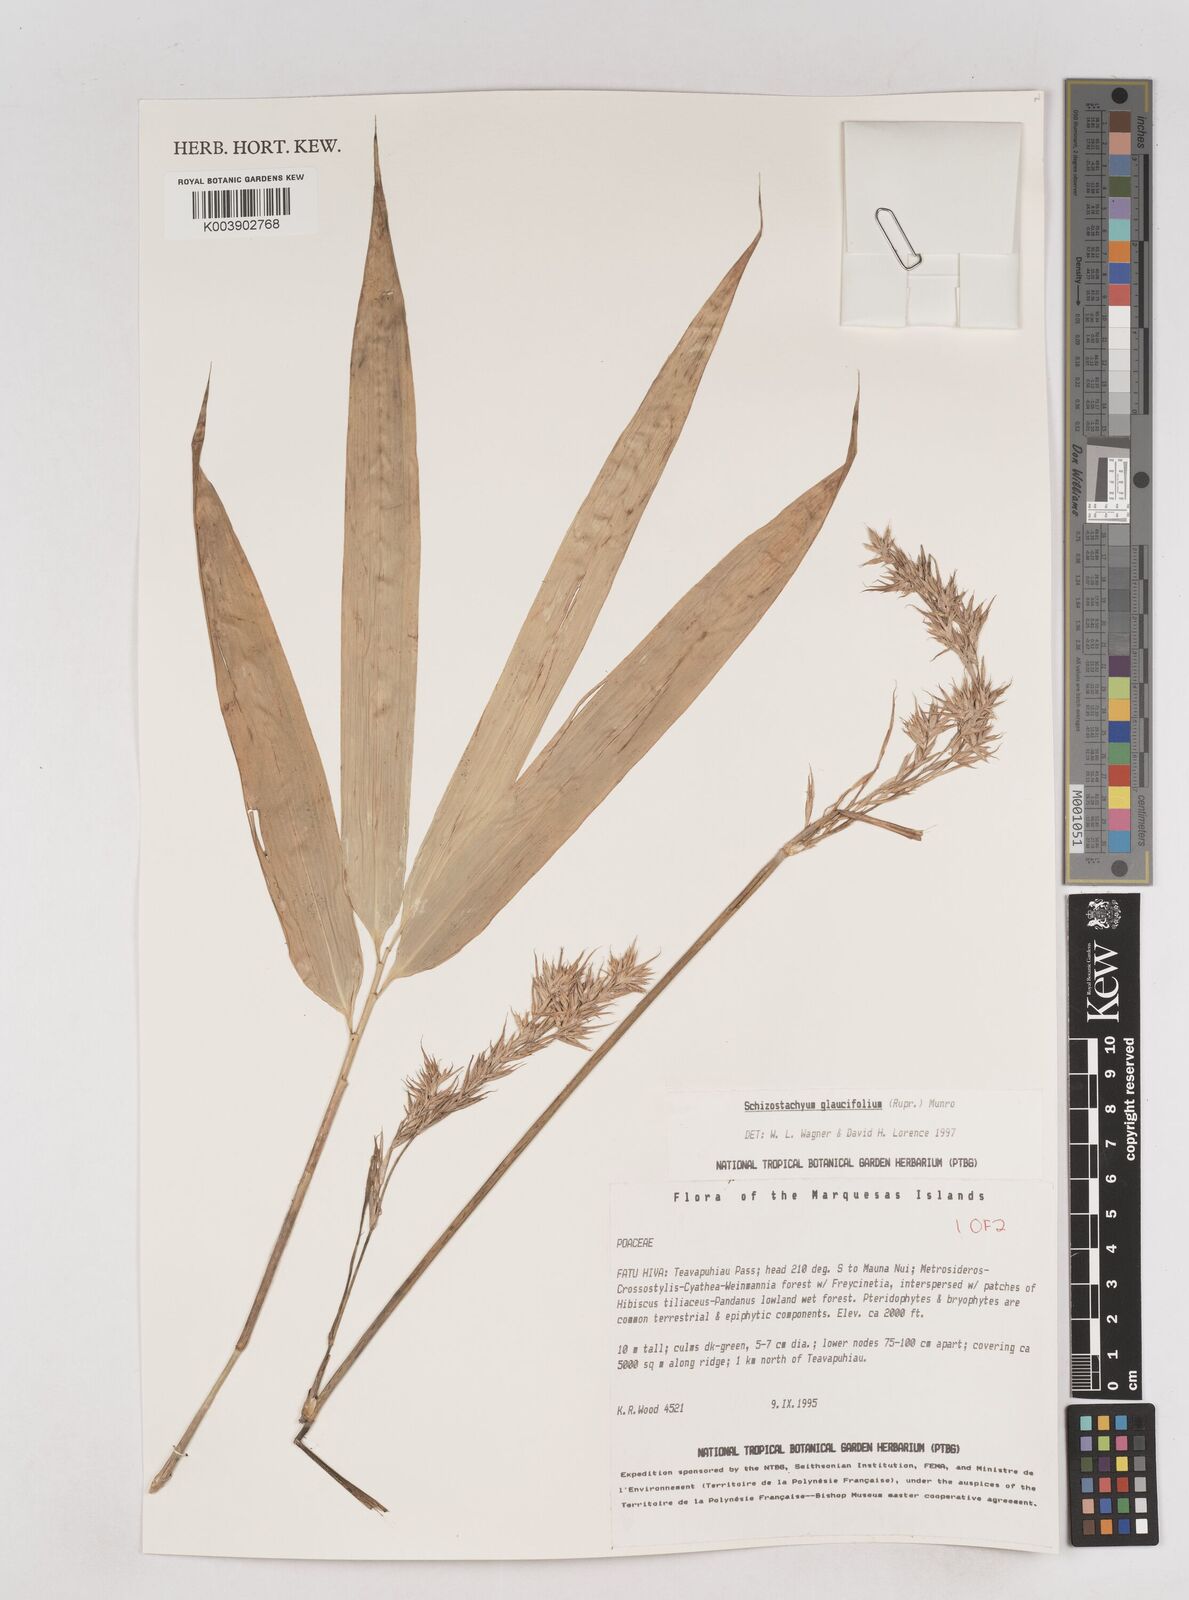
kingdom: Plantae
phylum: Tracheophyta
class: Liliopsida
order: Poales
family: Poaceae
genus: Schizostachyum
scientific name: Schizostachyum
